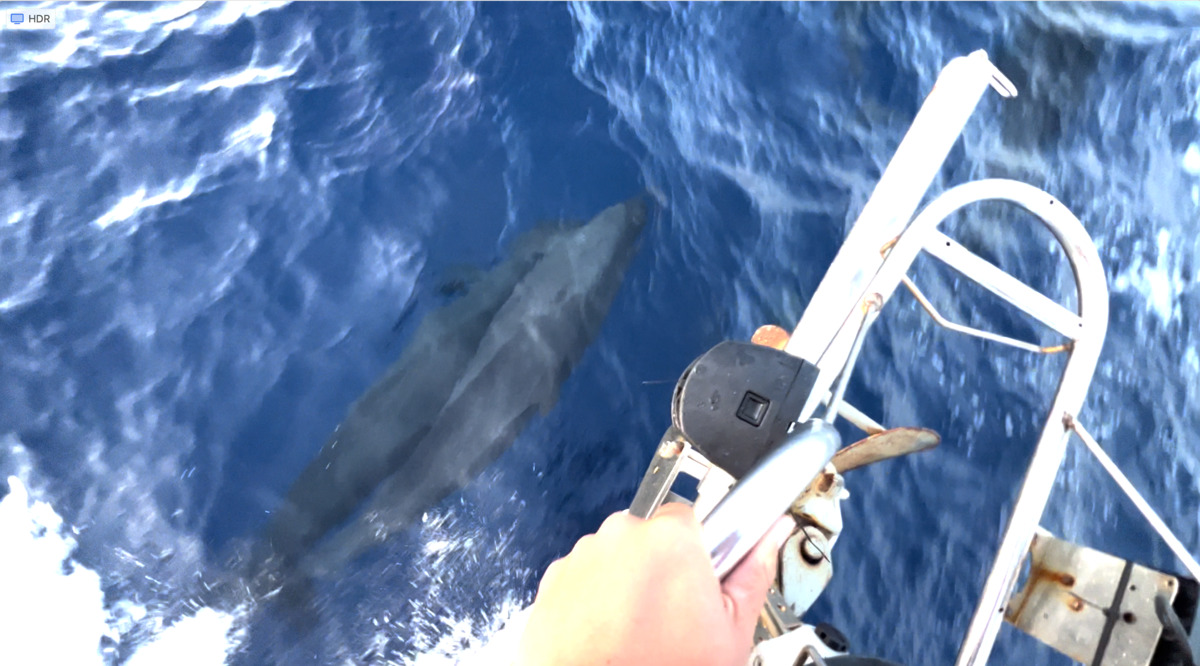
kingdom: Animalia
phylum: Chordata
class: Mammalia
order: Cetacea
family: Delphinidae
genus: Feresa
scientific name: Feresa attenuata
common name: Pygmy killer whale
